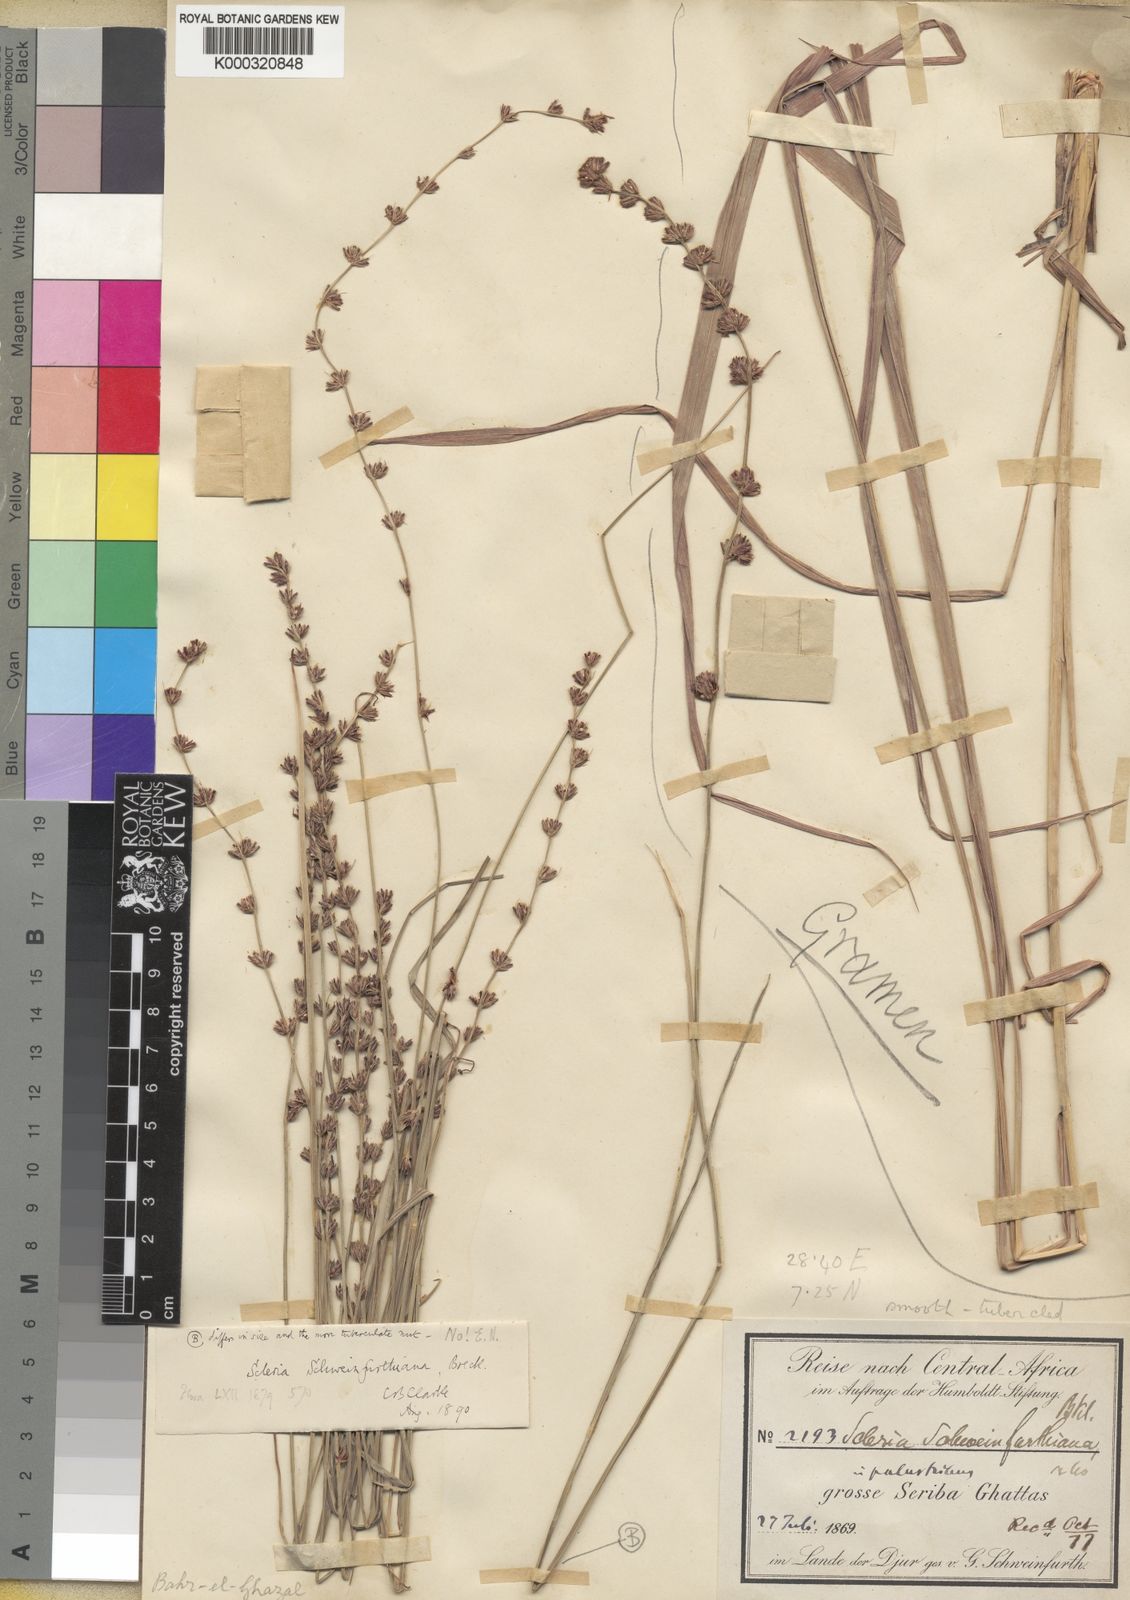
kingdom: Plantae
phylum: Tracheophyta
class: Liliopsida
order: Poales
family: Cyperaceae
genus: Scleria
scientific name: Scleria bulbifera
